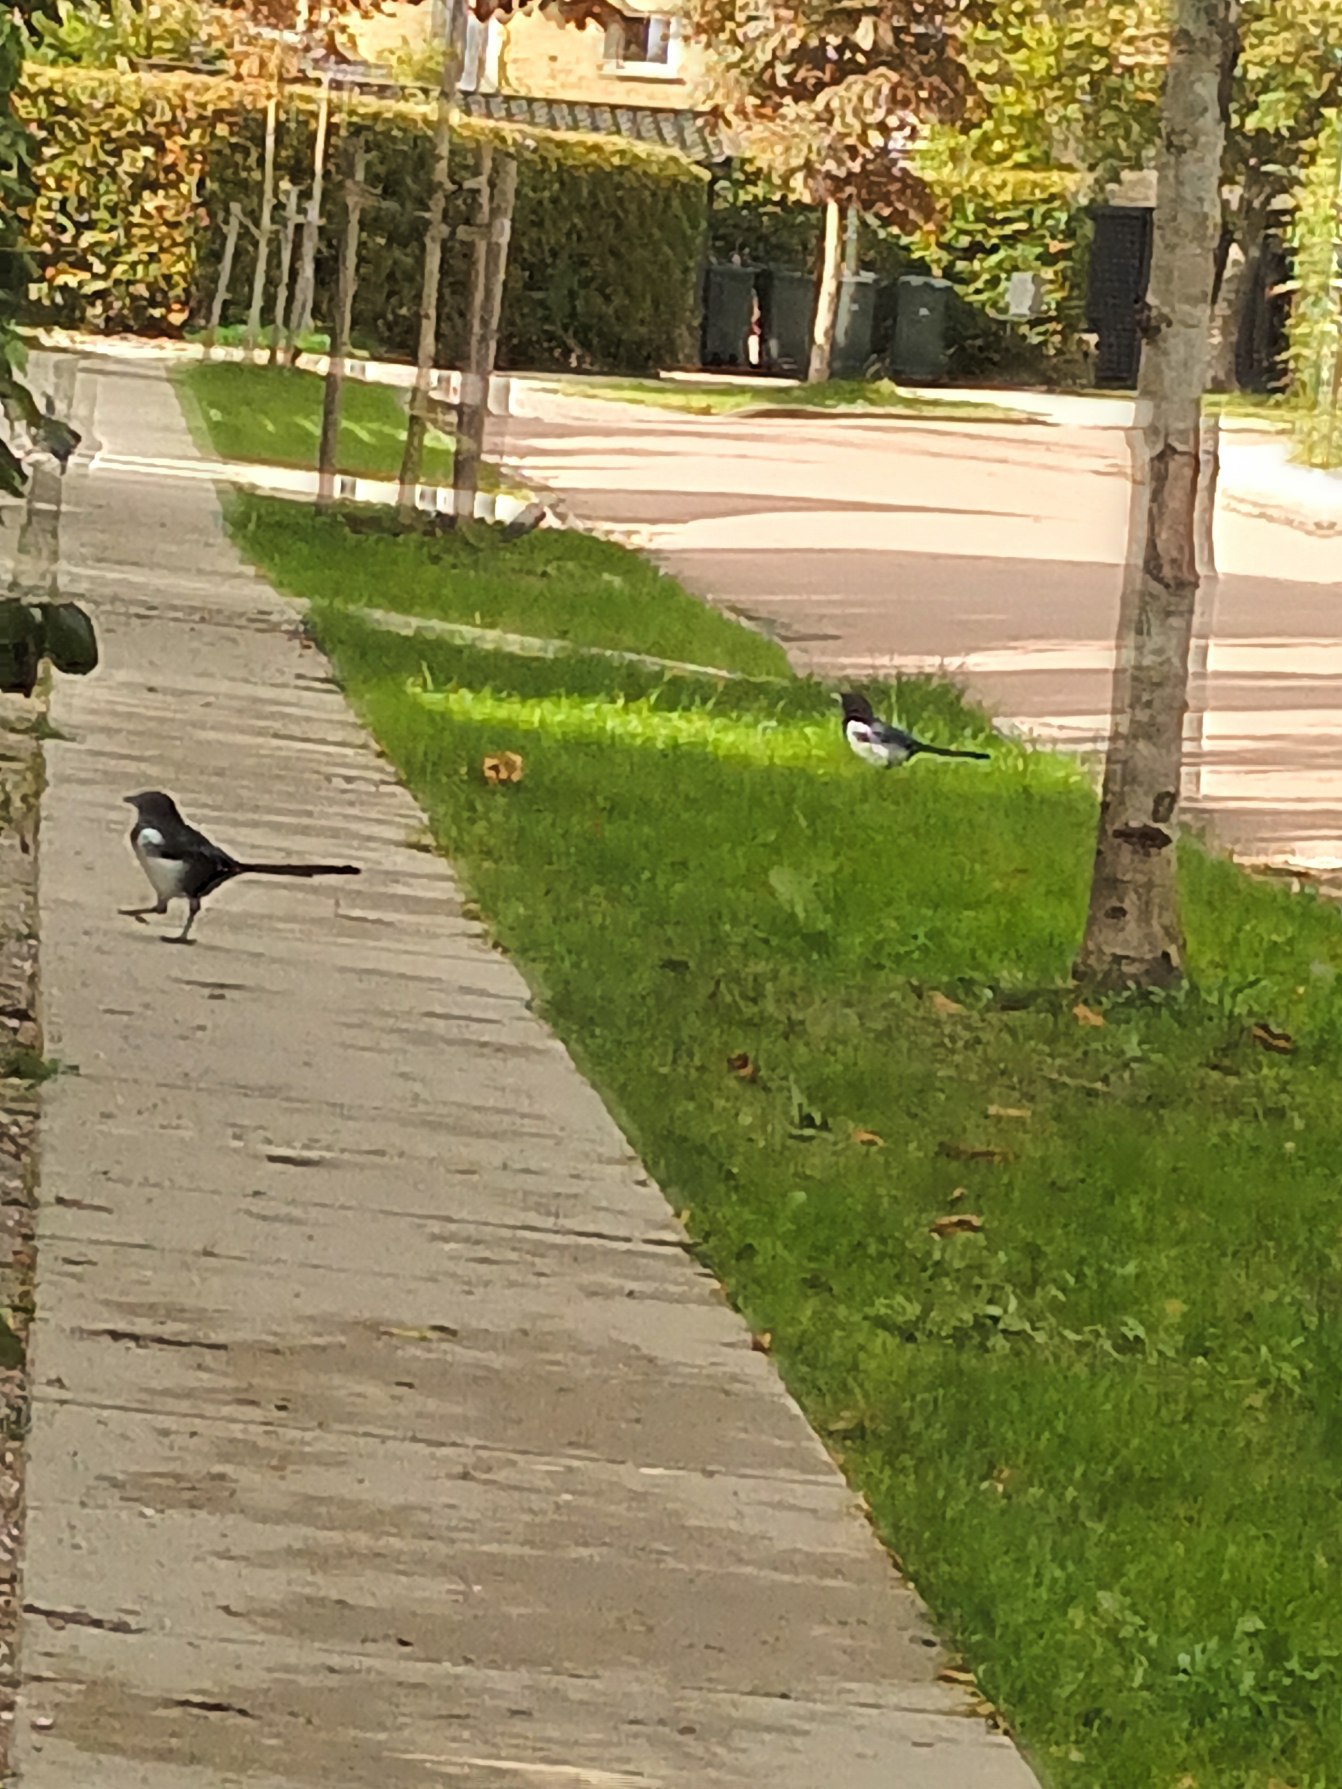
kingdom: Animalia
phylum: Chordata
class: Aves
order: Passeriformes
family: Corvidae
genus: Pica
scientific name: Pica pica
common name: Husskade
